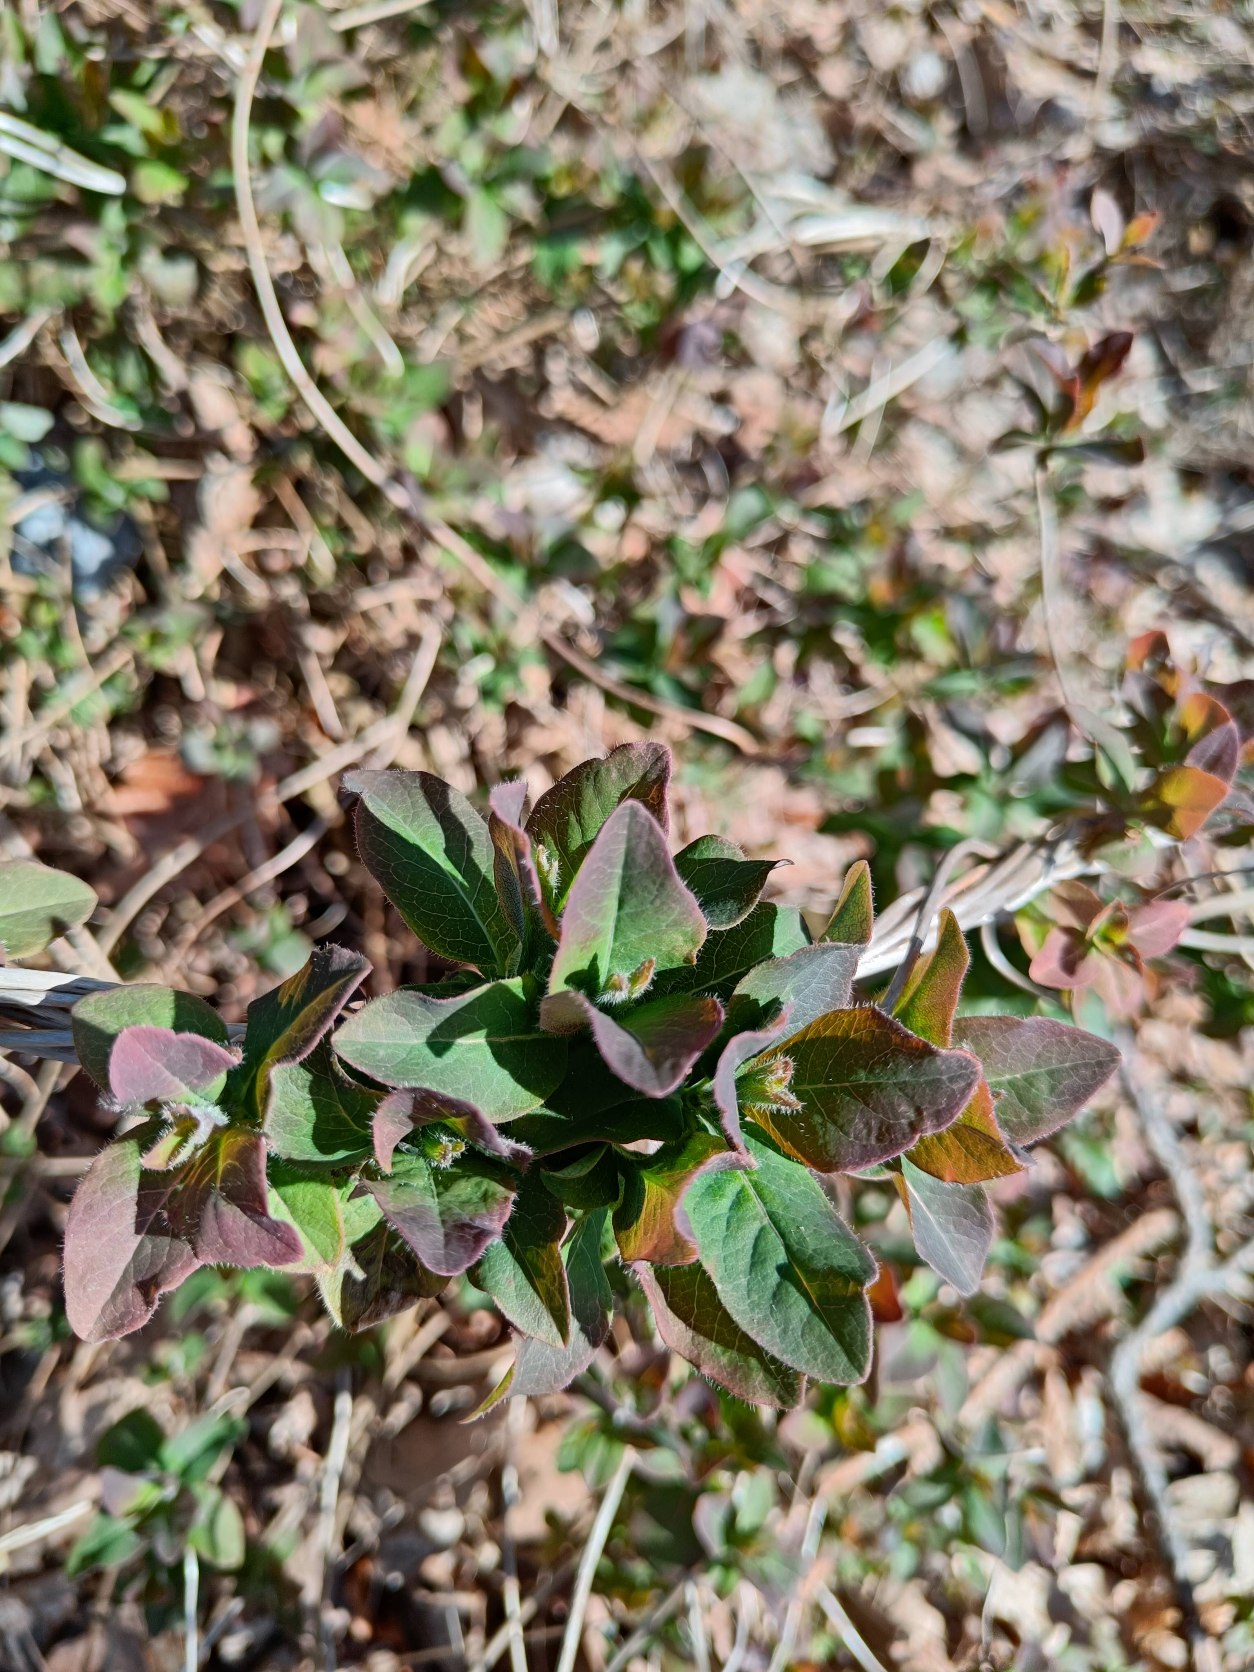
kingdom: Plantae
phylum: Tracheophyta
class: Magnoliopsida
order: Dipsacales
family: Caprifoliaceae
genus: Lonicera
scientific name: Lonicera periclymenum
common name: Almindelig gedeblad
